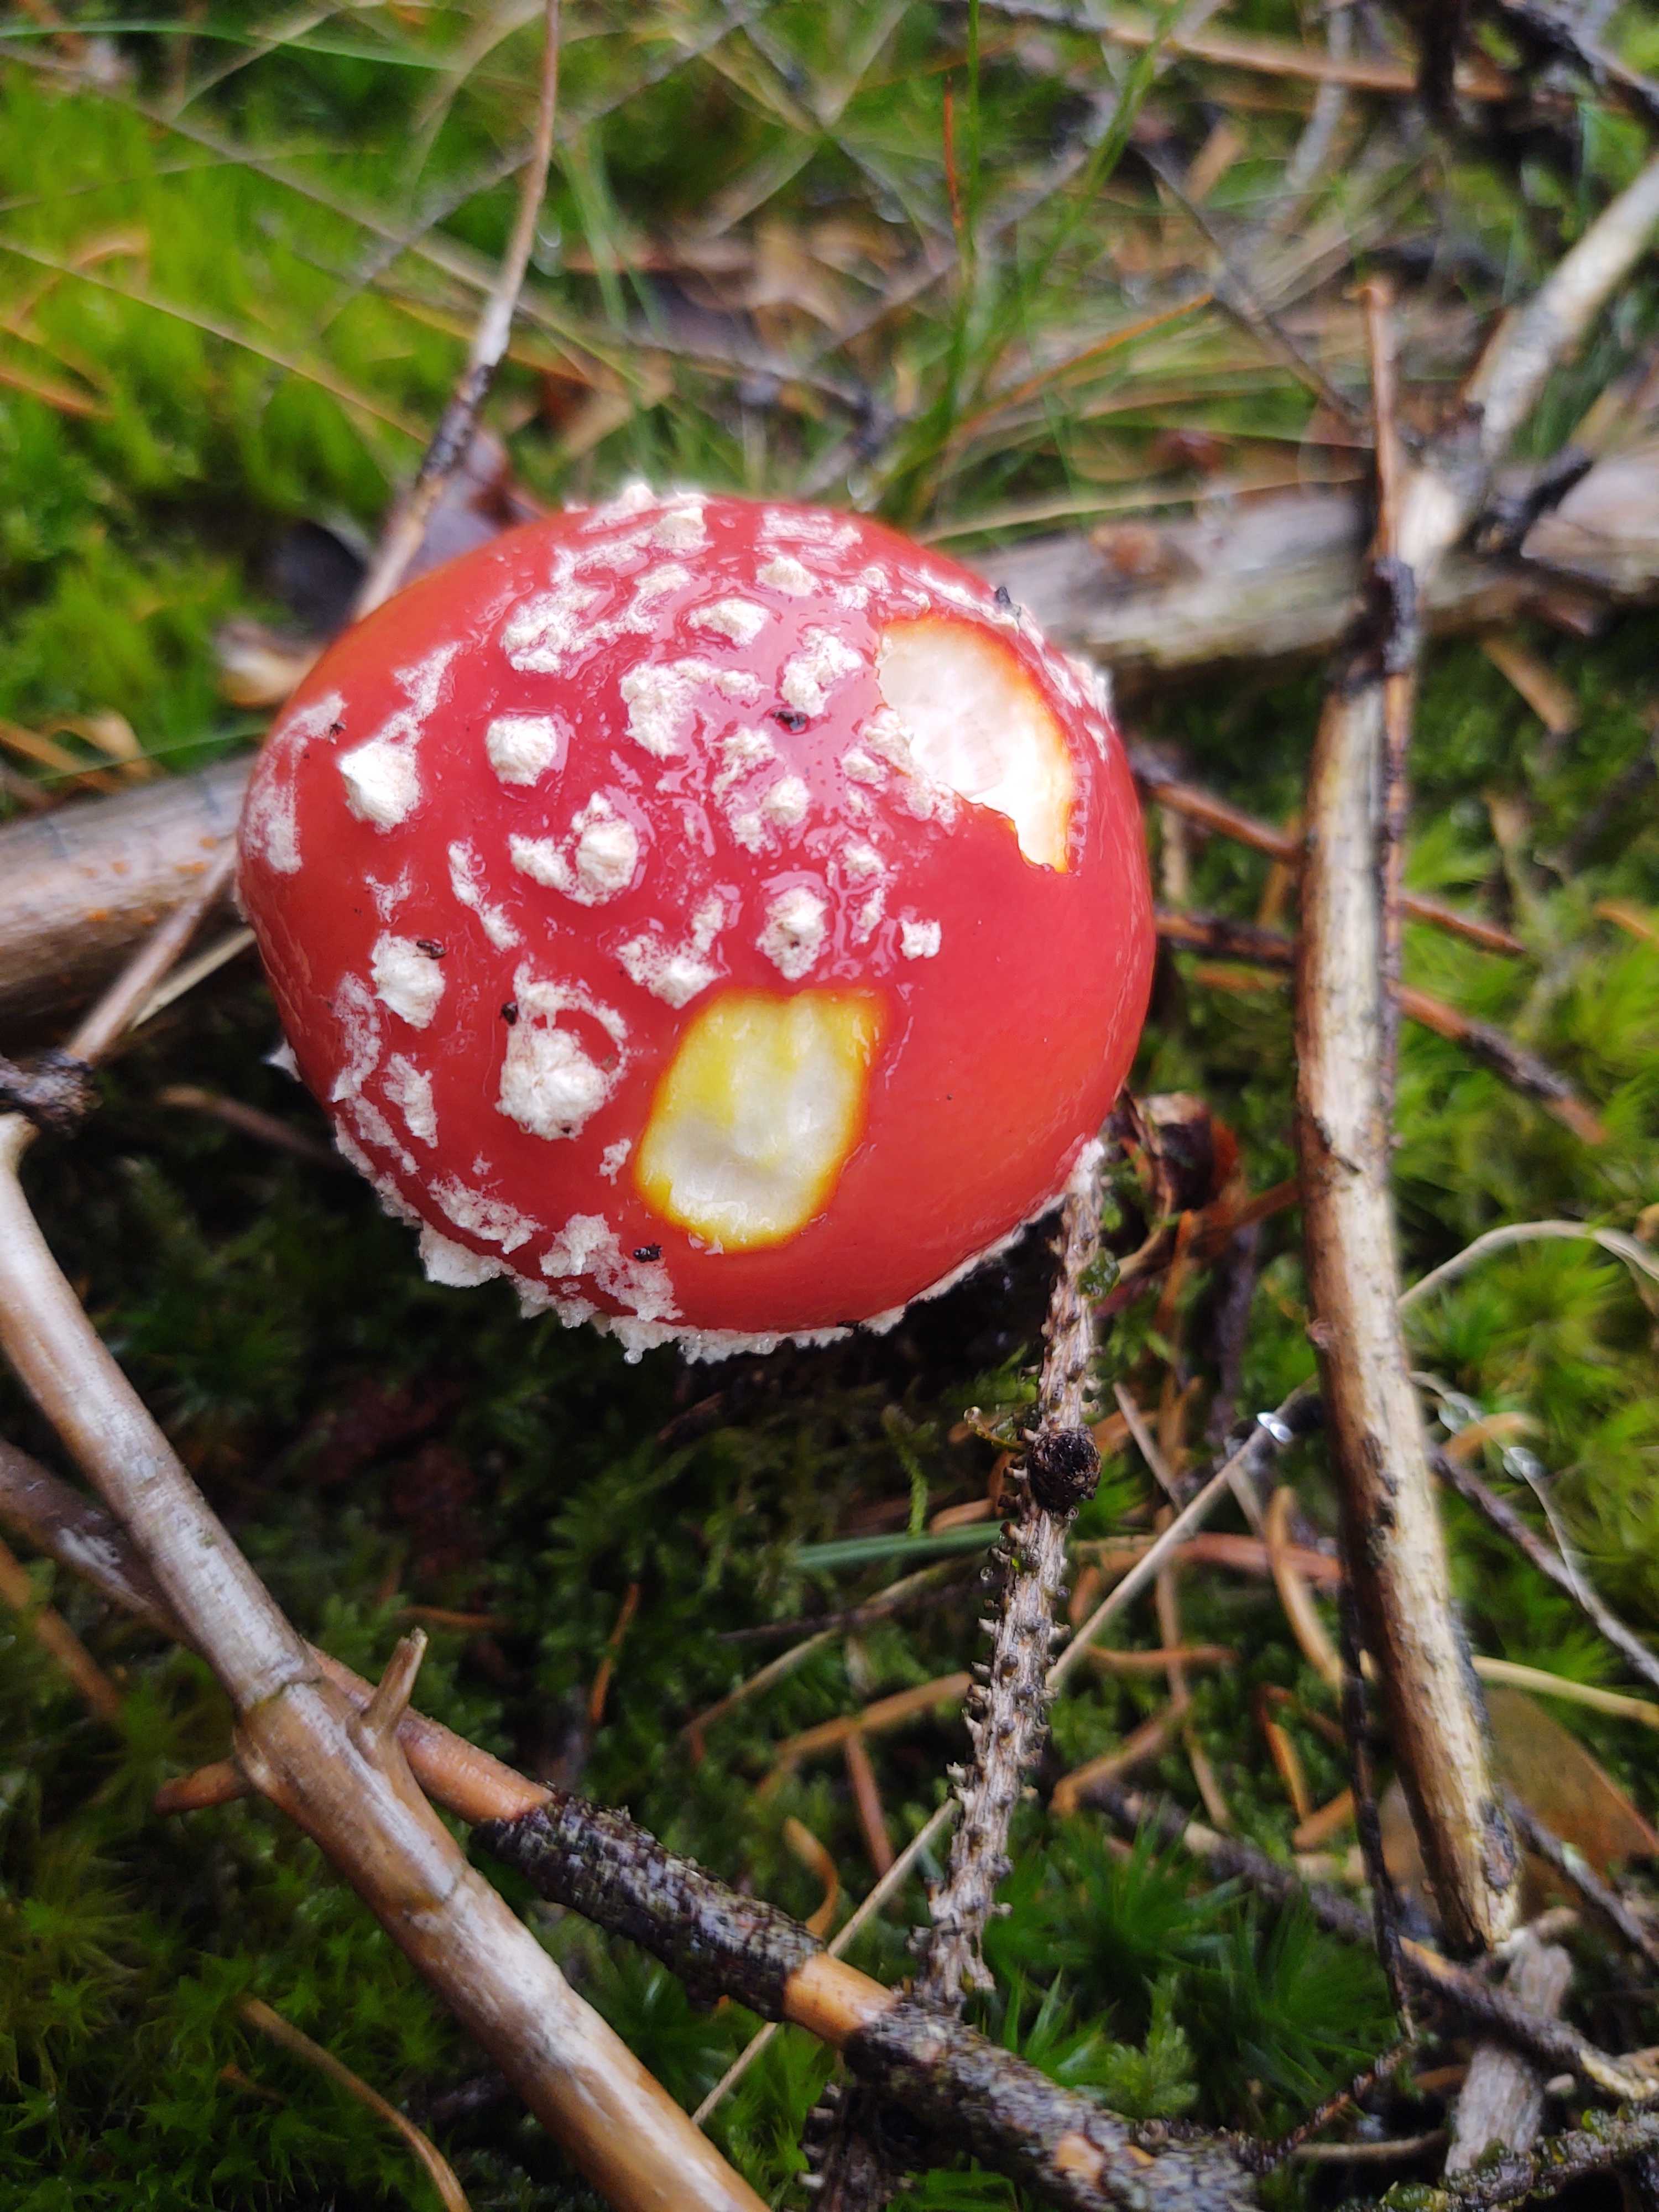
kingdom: Fungi
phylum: Basidiomycota
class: Agaricomycetes
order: Agaricales
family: Amanitaceae
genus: Amanita
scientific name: Amanita muscaria
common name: rød fluesvamp
